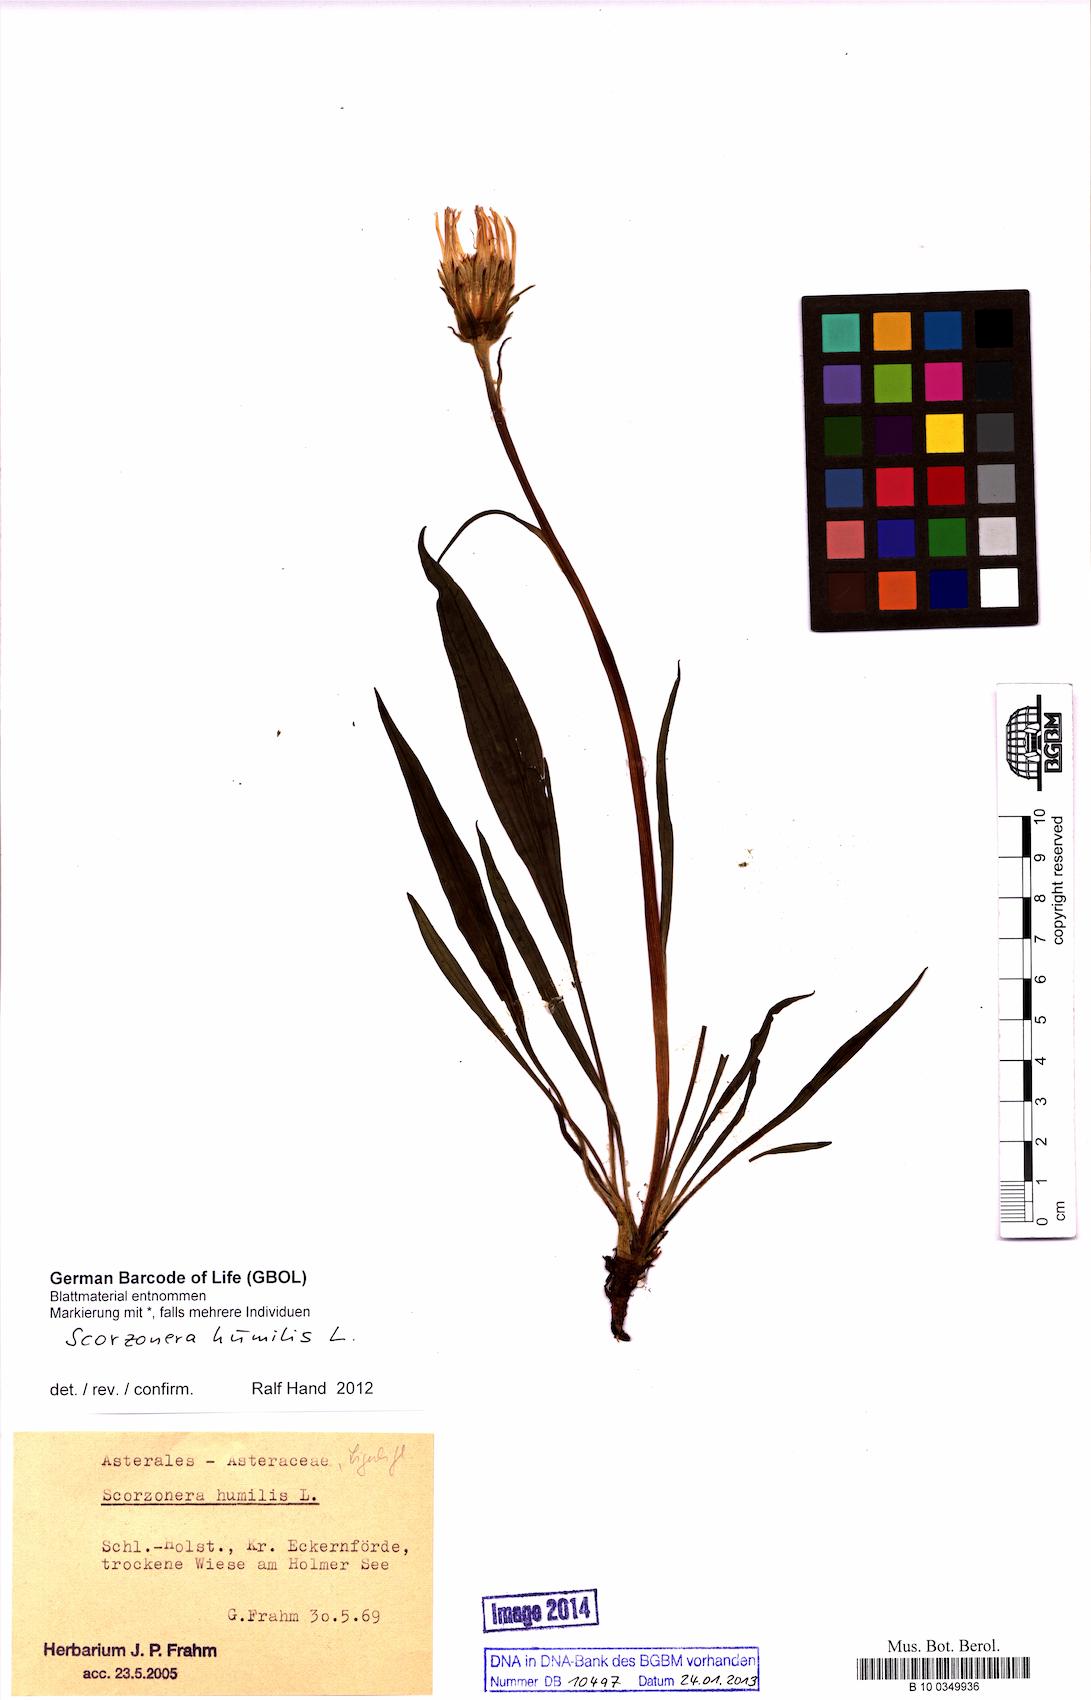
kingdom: Plantae
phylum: Tracheophyta
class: Magnoliopsida
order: Asterales
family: Asteraceae
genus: Scorzonera
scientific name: Scorzonera humilis
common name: Viper's-grass
